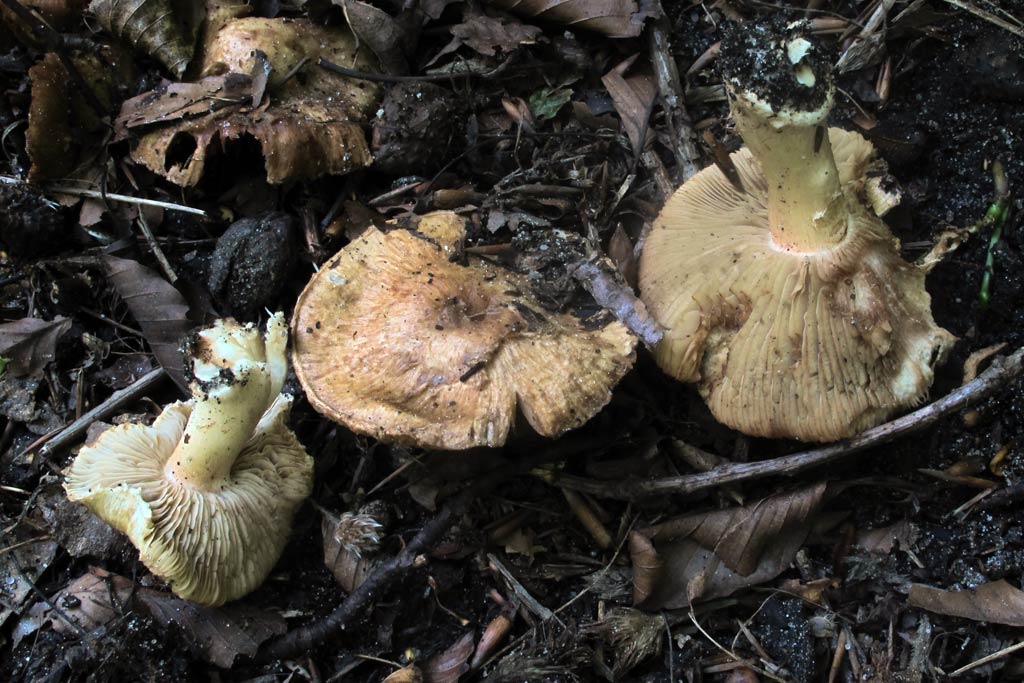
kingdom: Fungi
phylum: Basidiomycota
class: Agaricomycetes
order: Agaricales
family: Inocybaceae
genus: Inosperma
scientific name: Inosperma bongardii
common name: Bongards trævlhat
